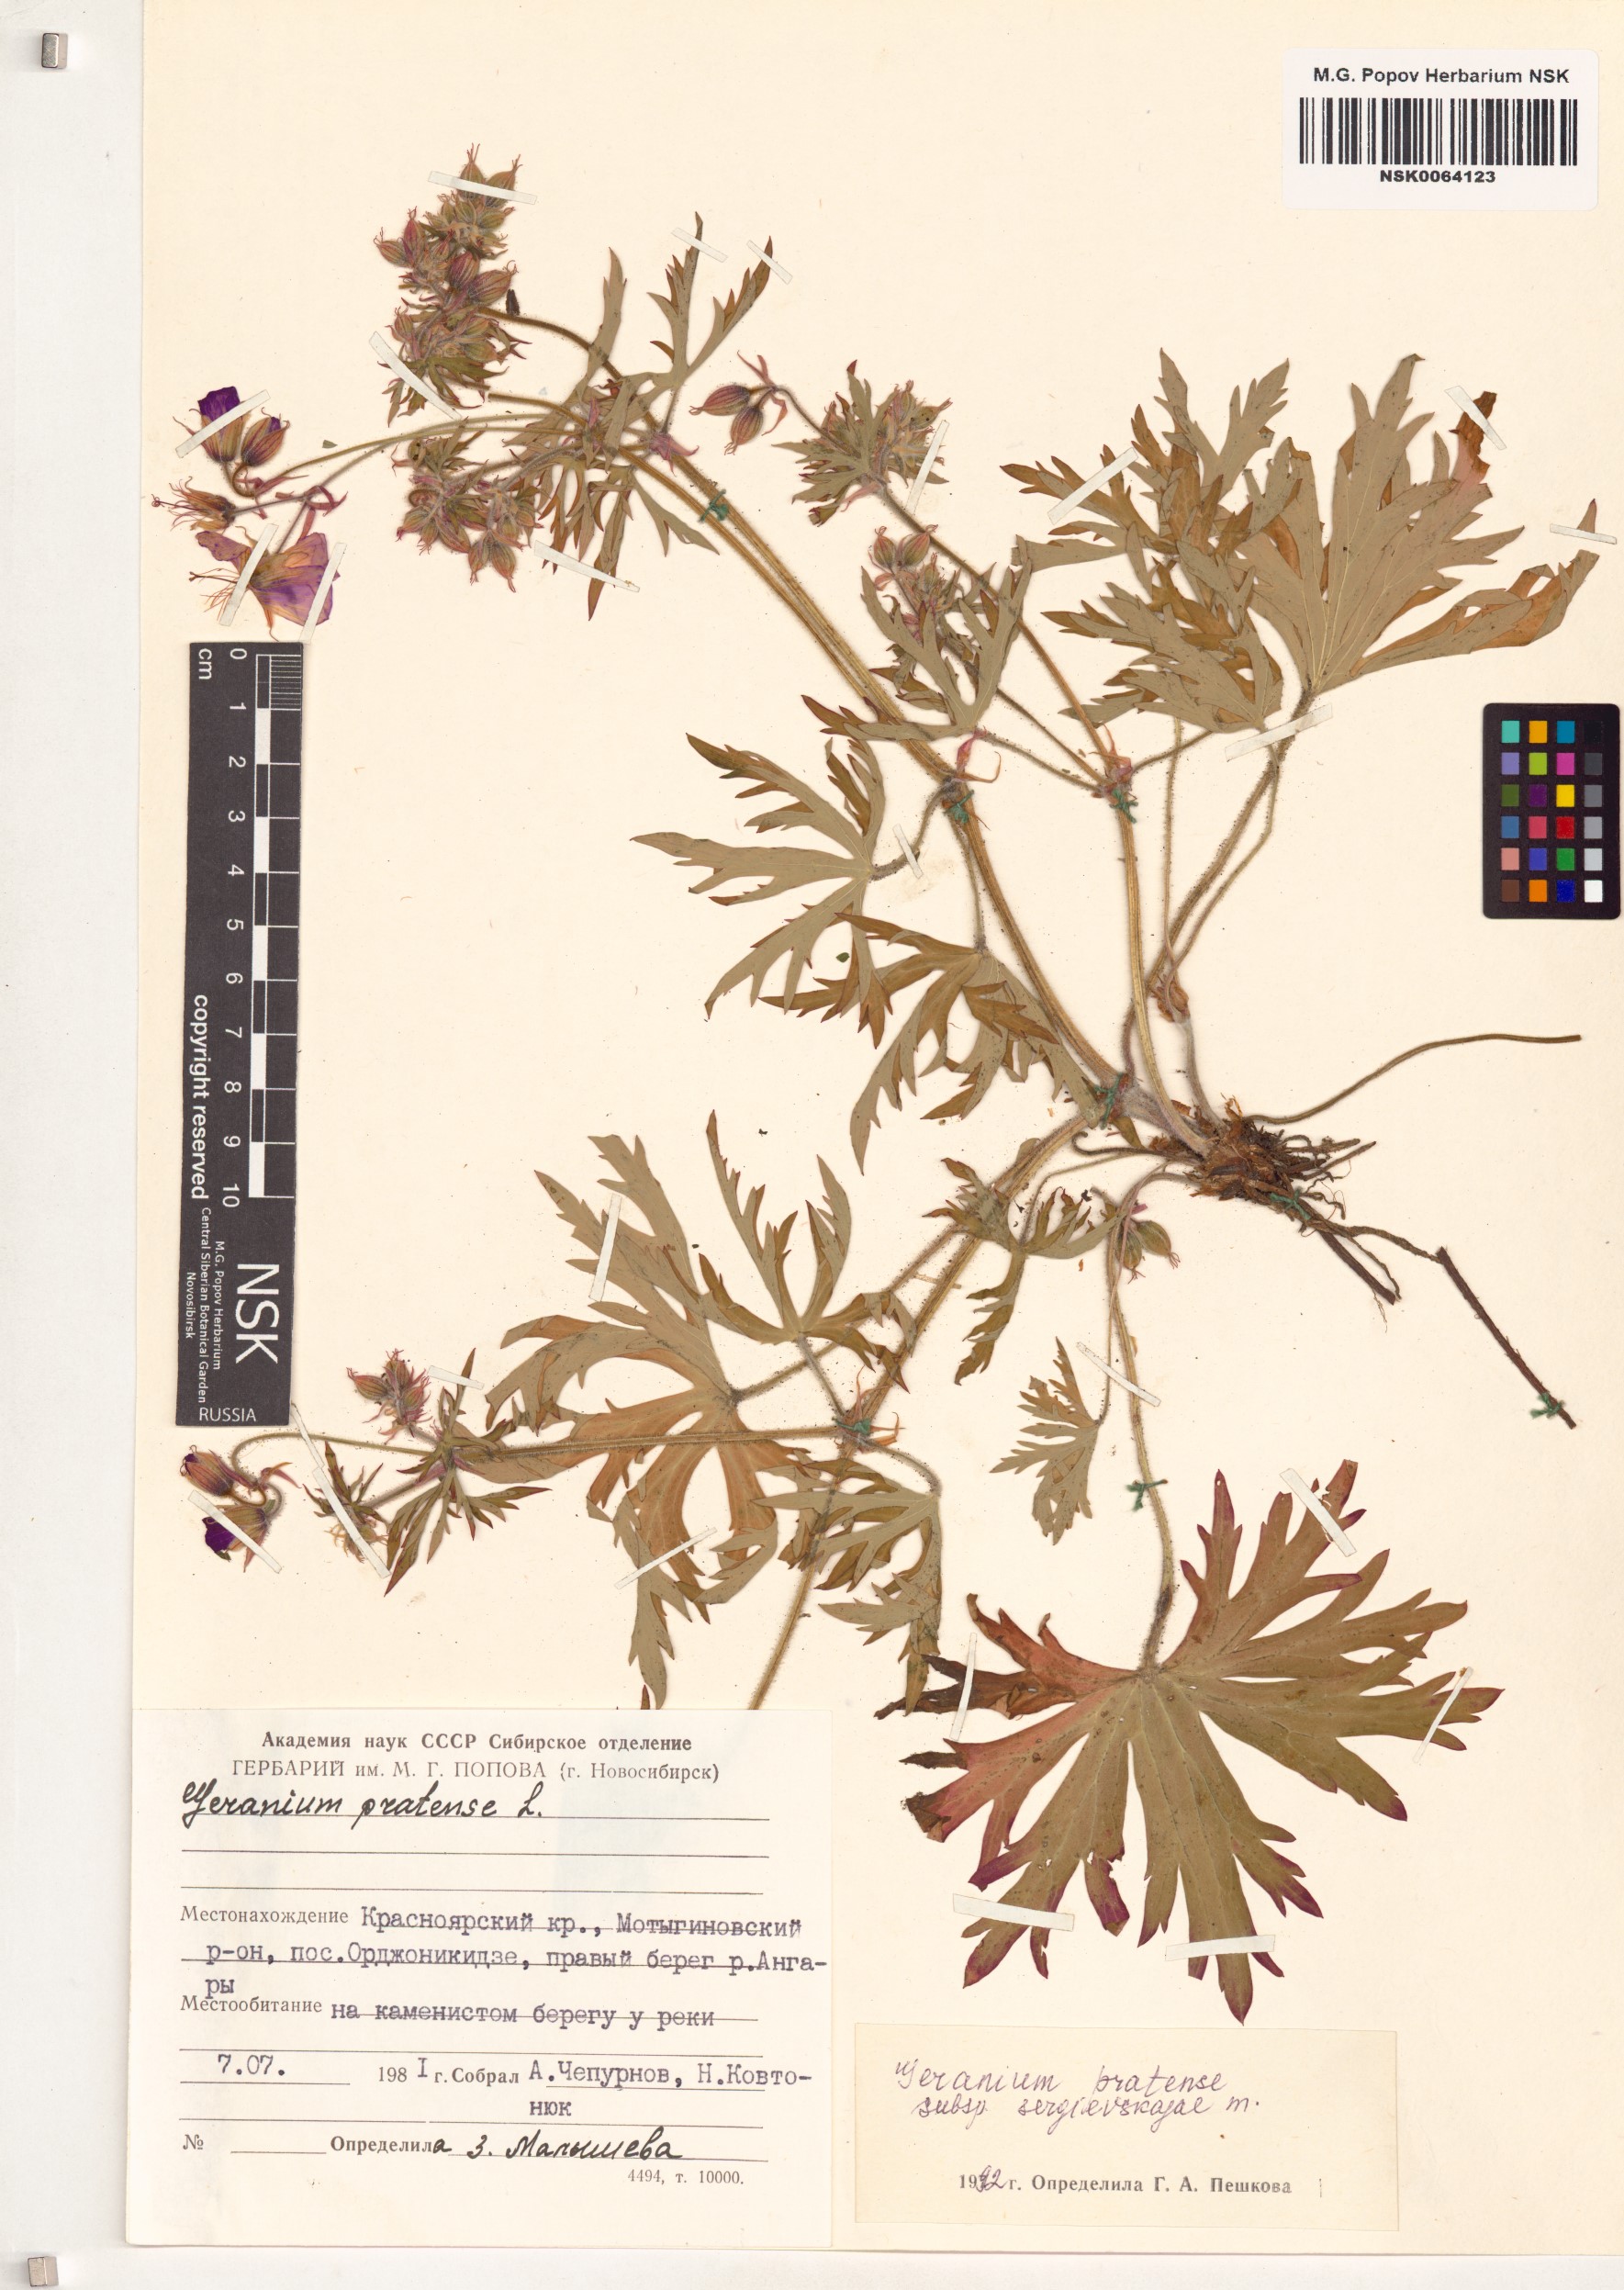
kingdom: Plantae
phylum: Tracheophyta
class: Magnoliopsida
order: Geraniales
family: Geraniaceae
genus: Geranium
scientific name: Geranium pratense
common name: Meadow crane's-bill
